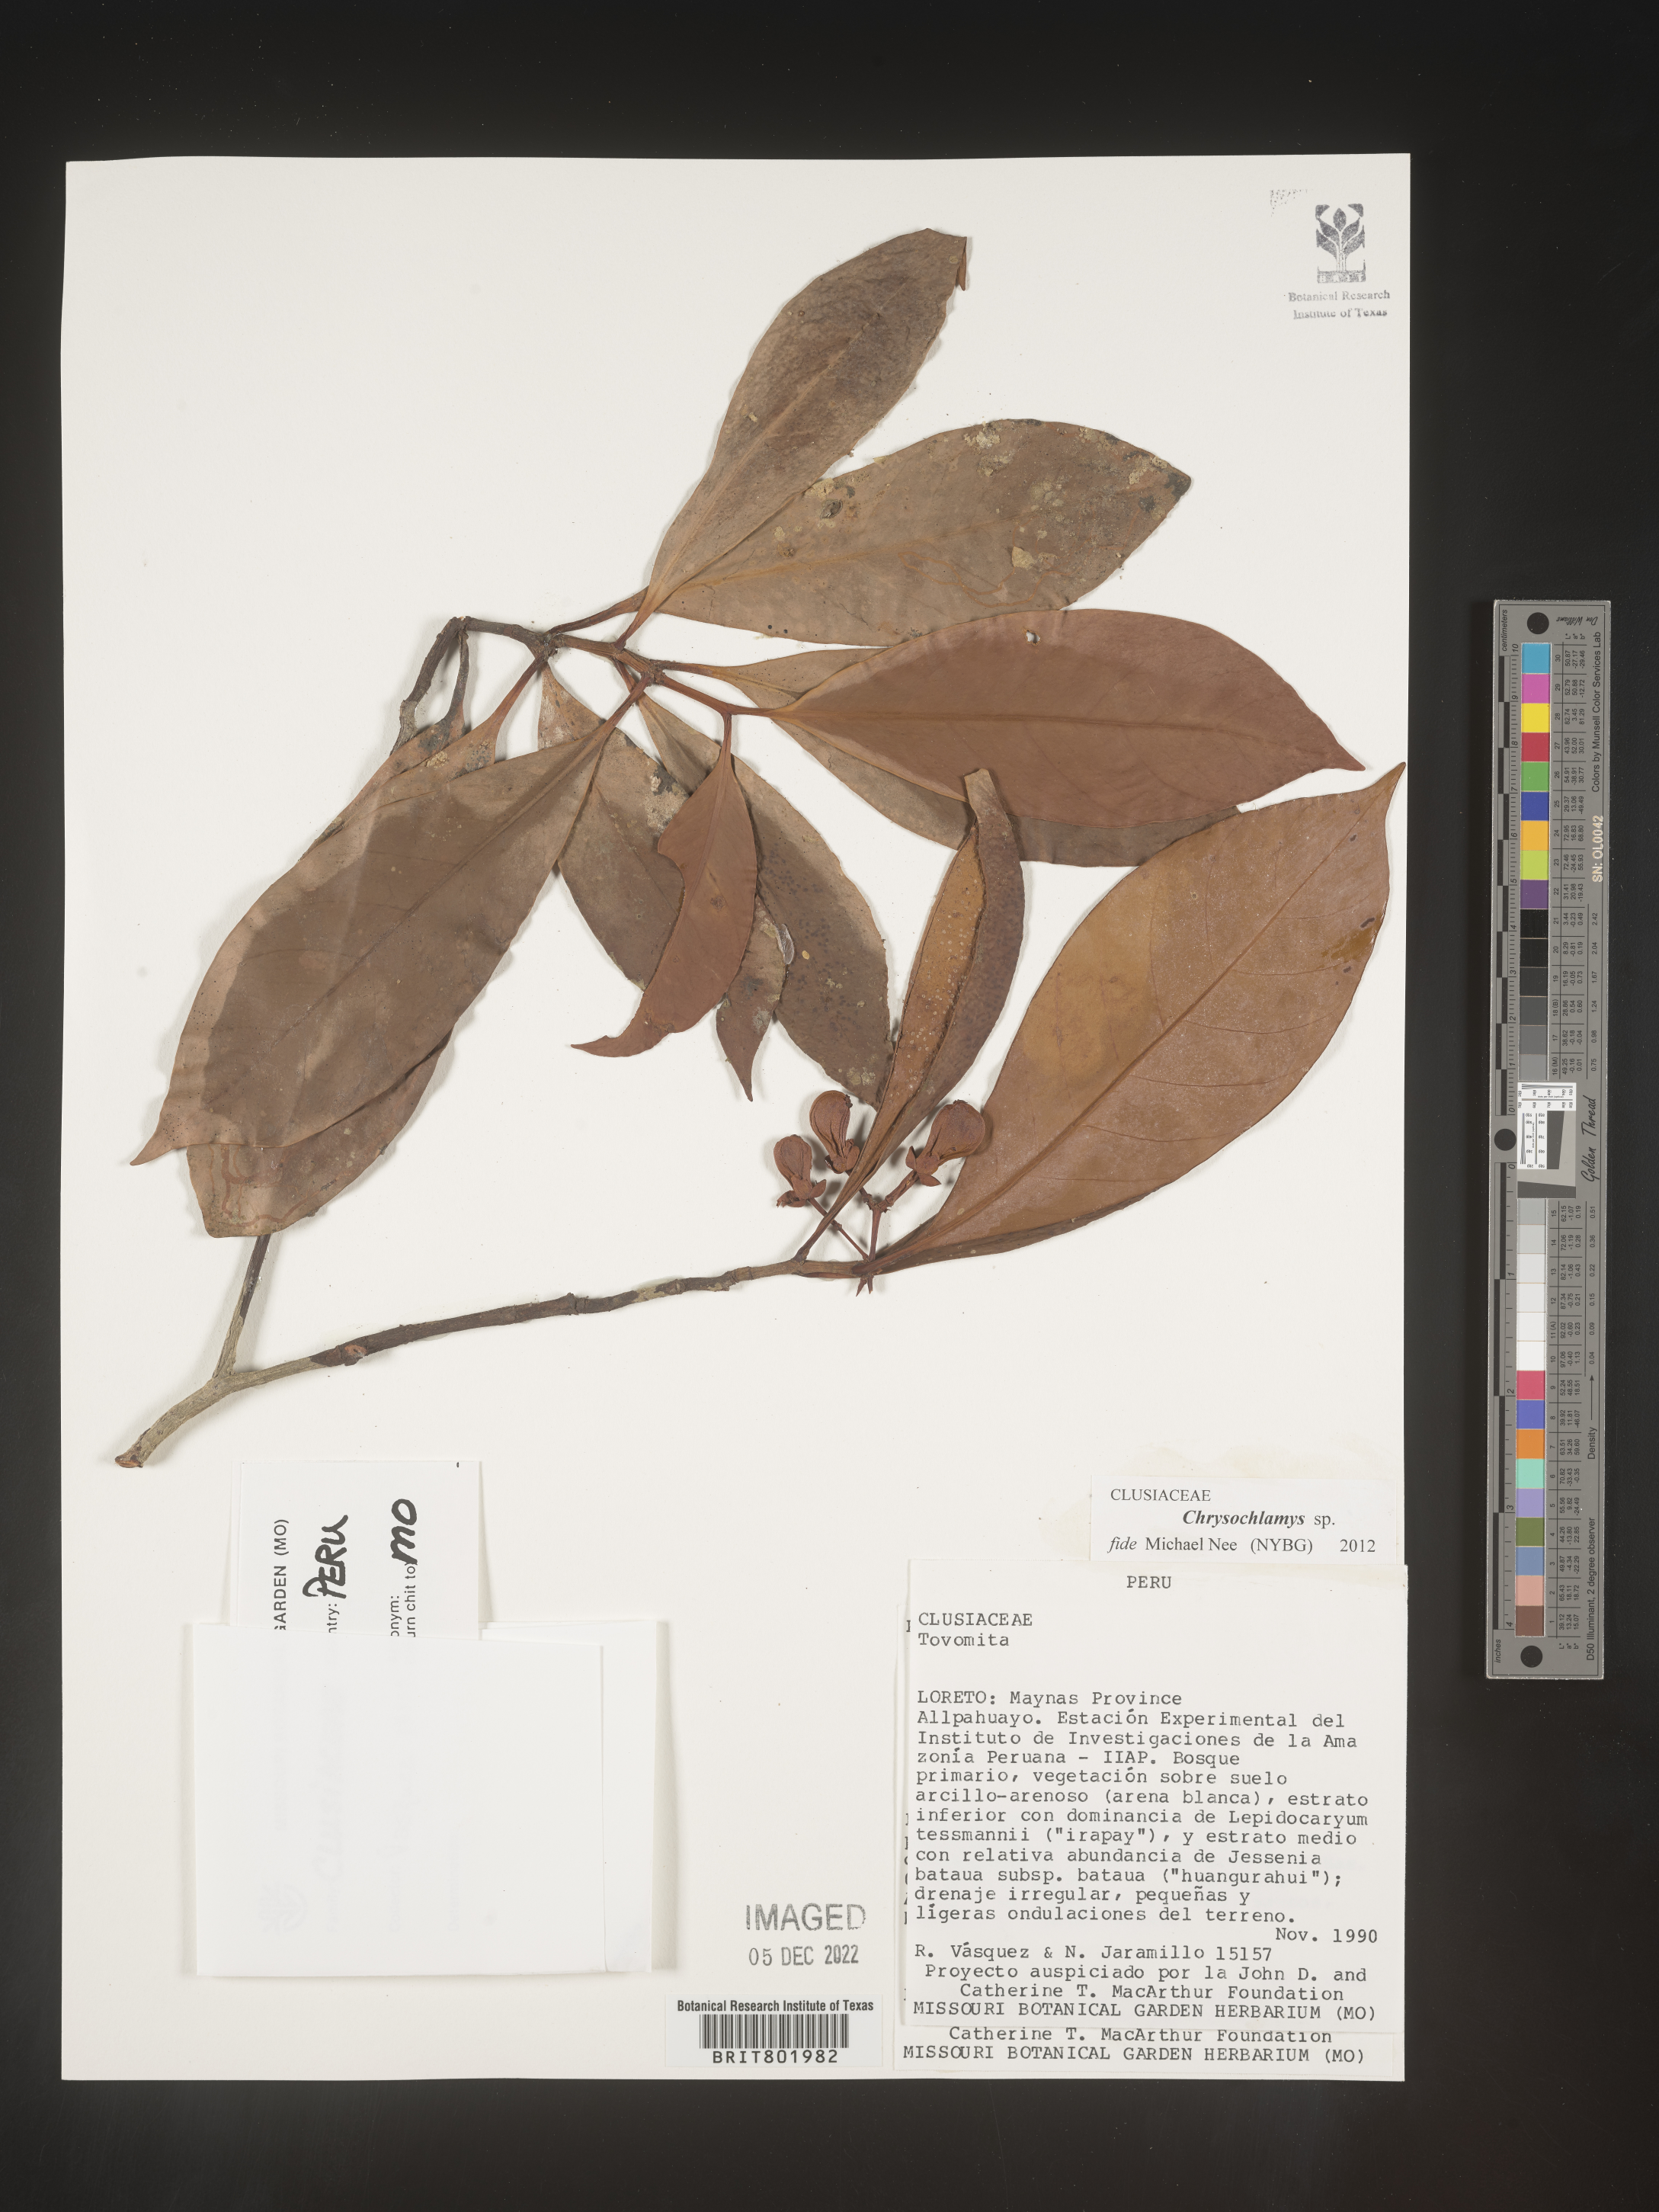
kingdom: Plantae
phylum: Tracheophyta
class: Magnoliopsida
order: Malpighiales
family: Clusiaceae
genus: Chrysochlamys
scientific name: Chrysochlamys
